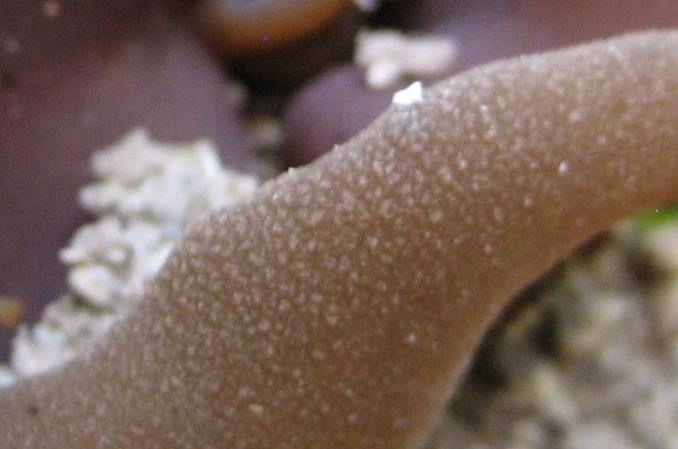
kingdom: Fungi
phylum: Ascomycota
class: Pezizomycetes
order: Pezizales
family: Pezizaceae
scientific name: Pezizaceae
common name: bægersvampfamilien
